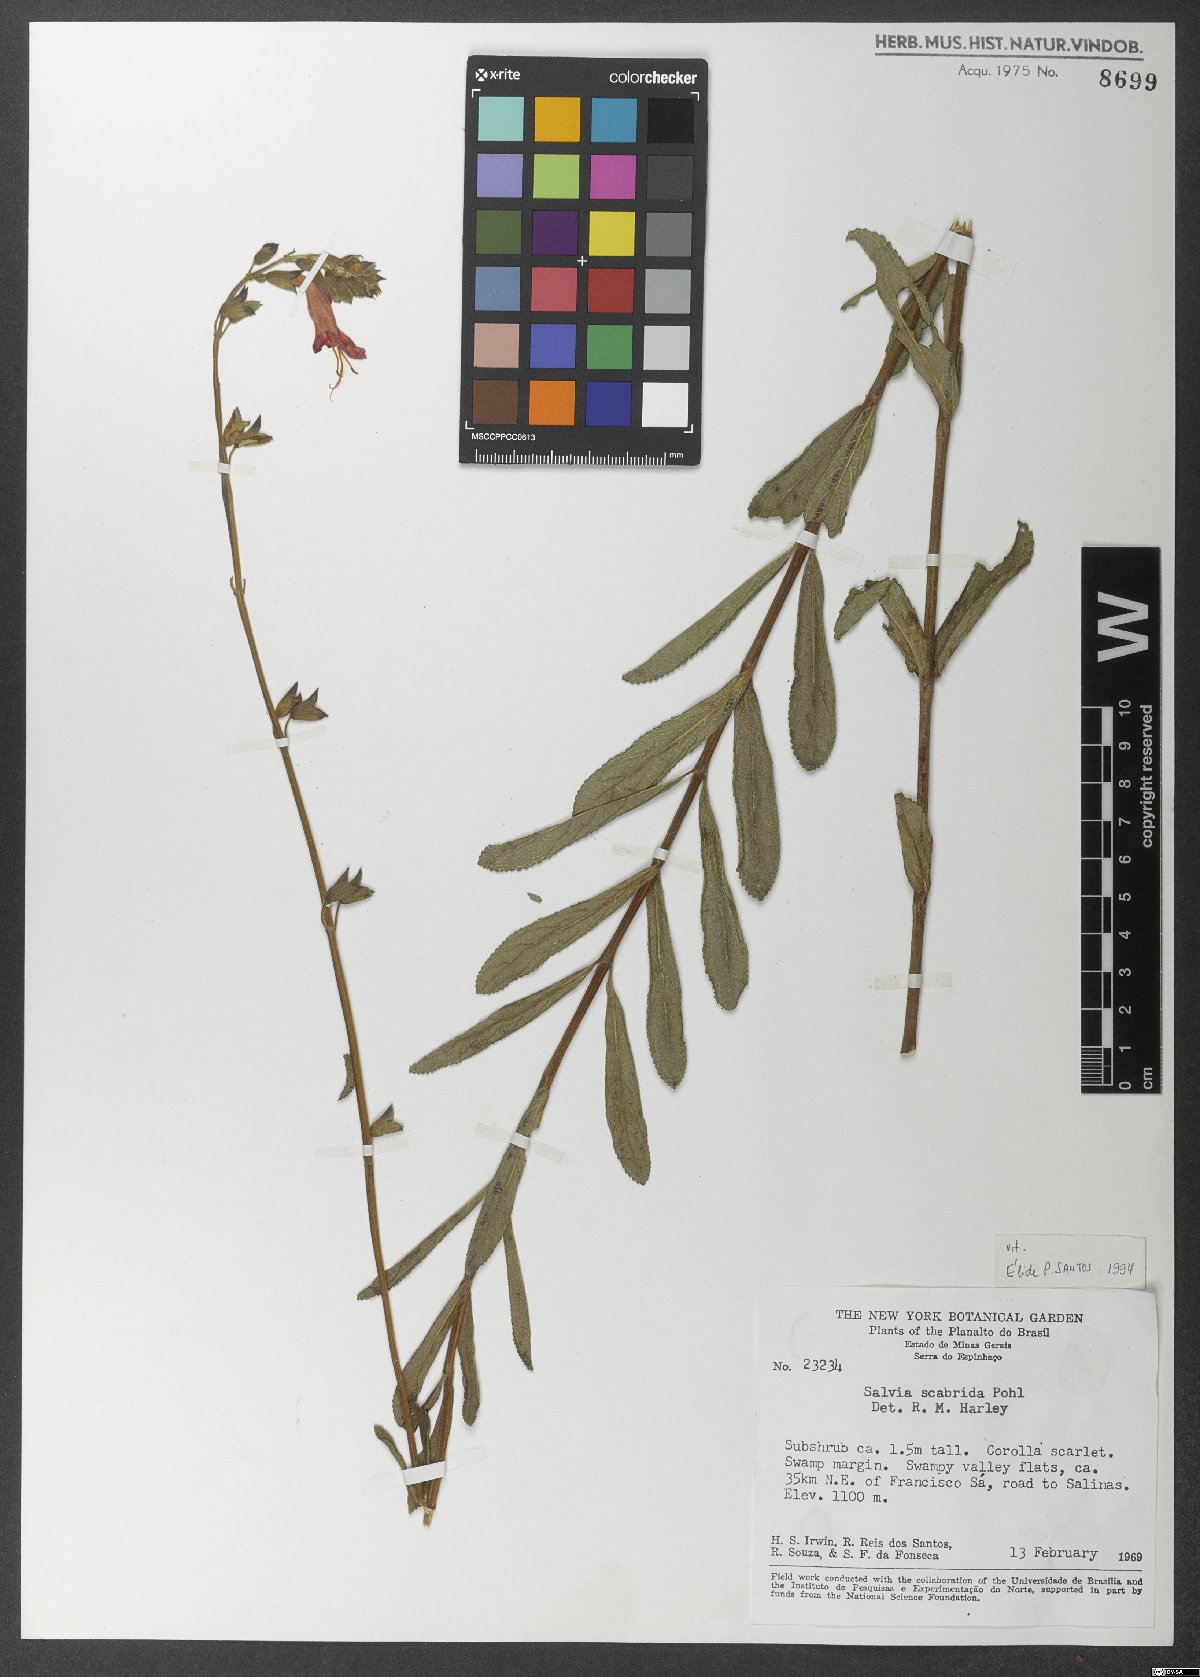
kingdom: Plantae
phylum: Tracheophyta
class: Magnoliopsida
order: Lamiales
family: Lamiaceae
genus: Salvia
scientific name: Salvia scabrida
